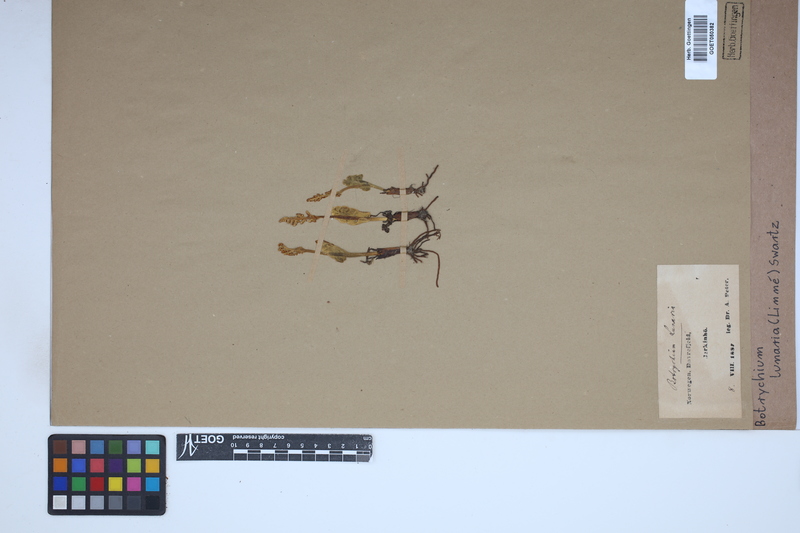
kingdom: Plantae
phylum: Tracheophyta
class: Polypodiopsida
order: Ophioglossales
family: Ophioglossaceae
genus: Botrychium
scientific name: Botrychium lunaria
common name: Moonwort
